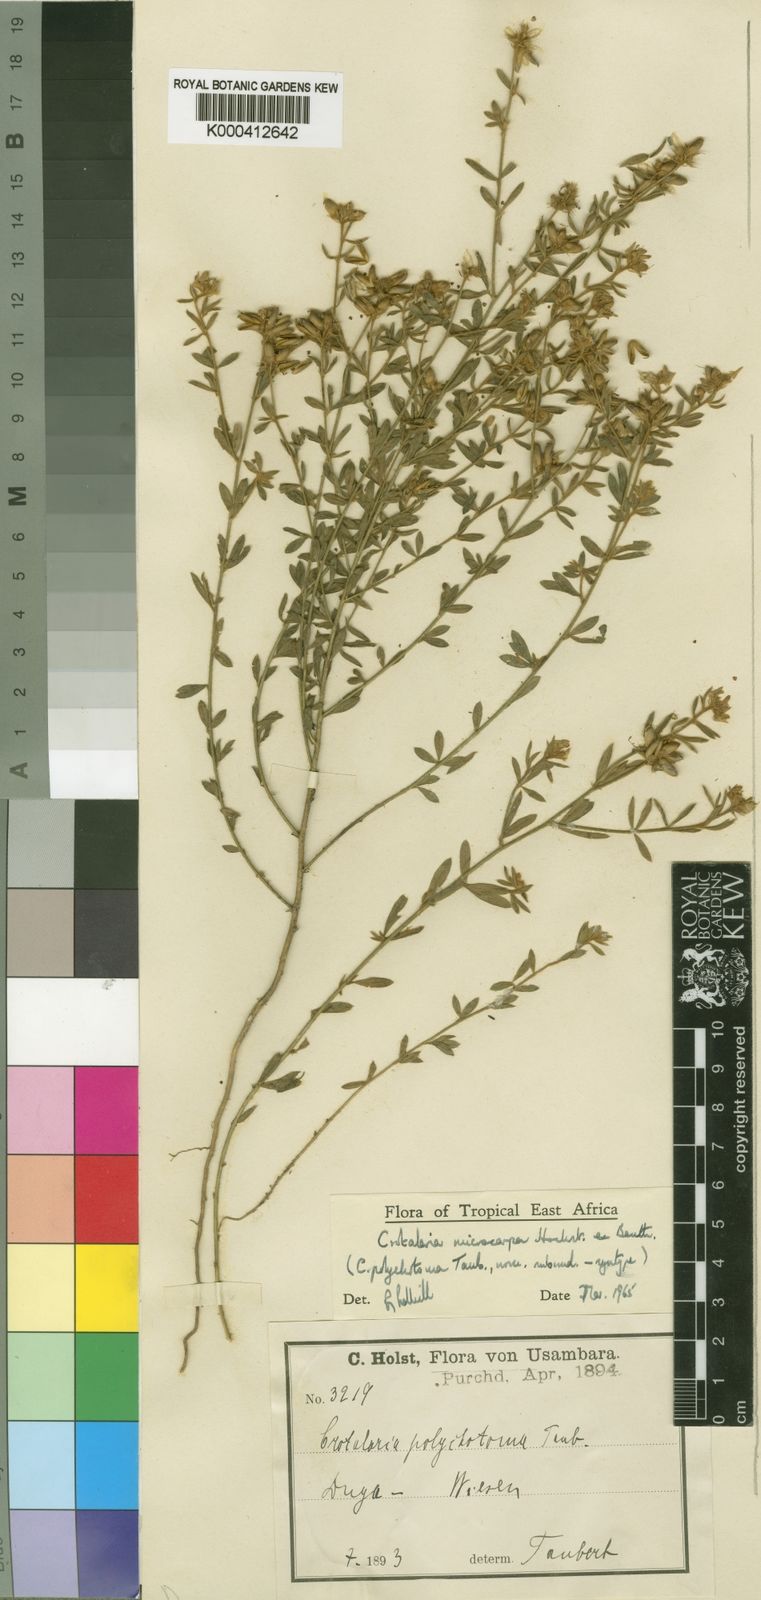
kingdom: Plantae
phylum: Tracheophyta
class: Magnoliopsida
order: Fabales
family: Fabaceae
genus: Crotalaria
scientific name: Crotalaria microcarpa
